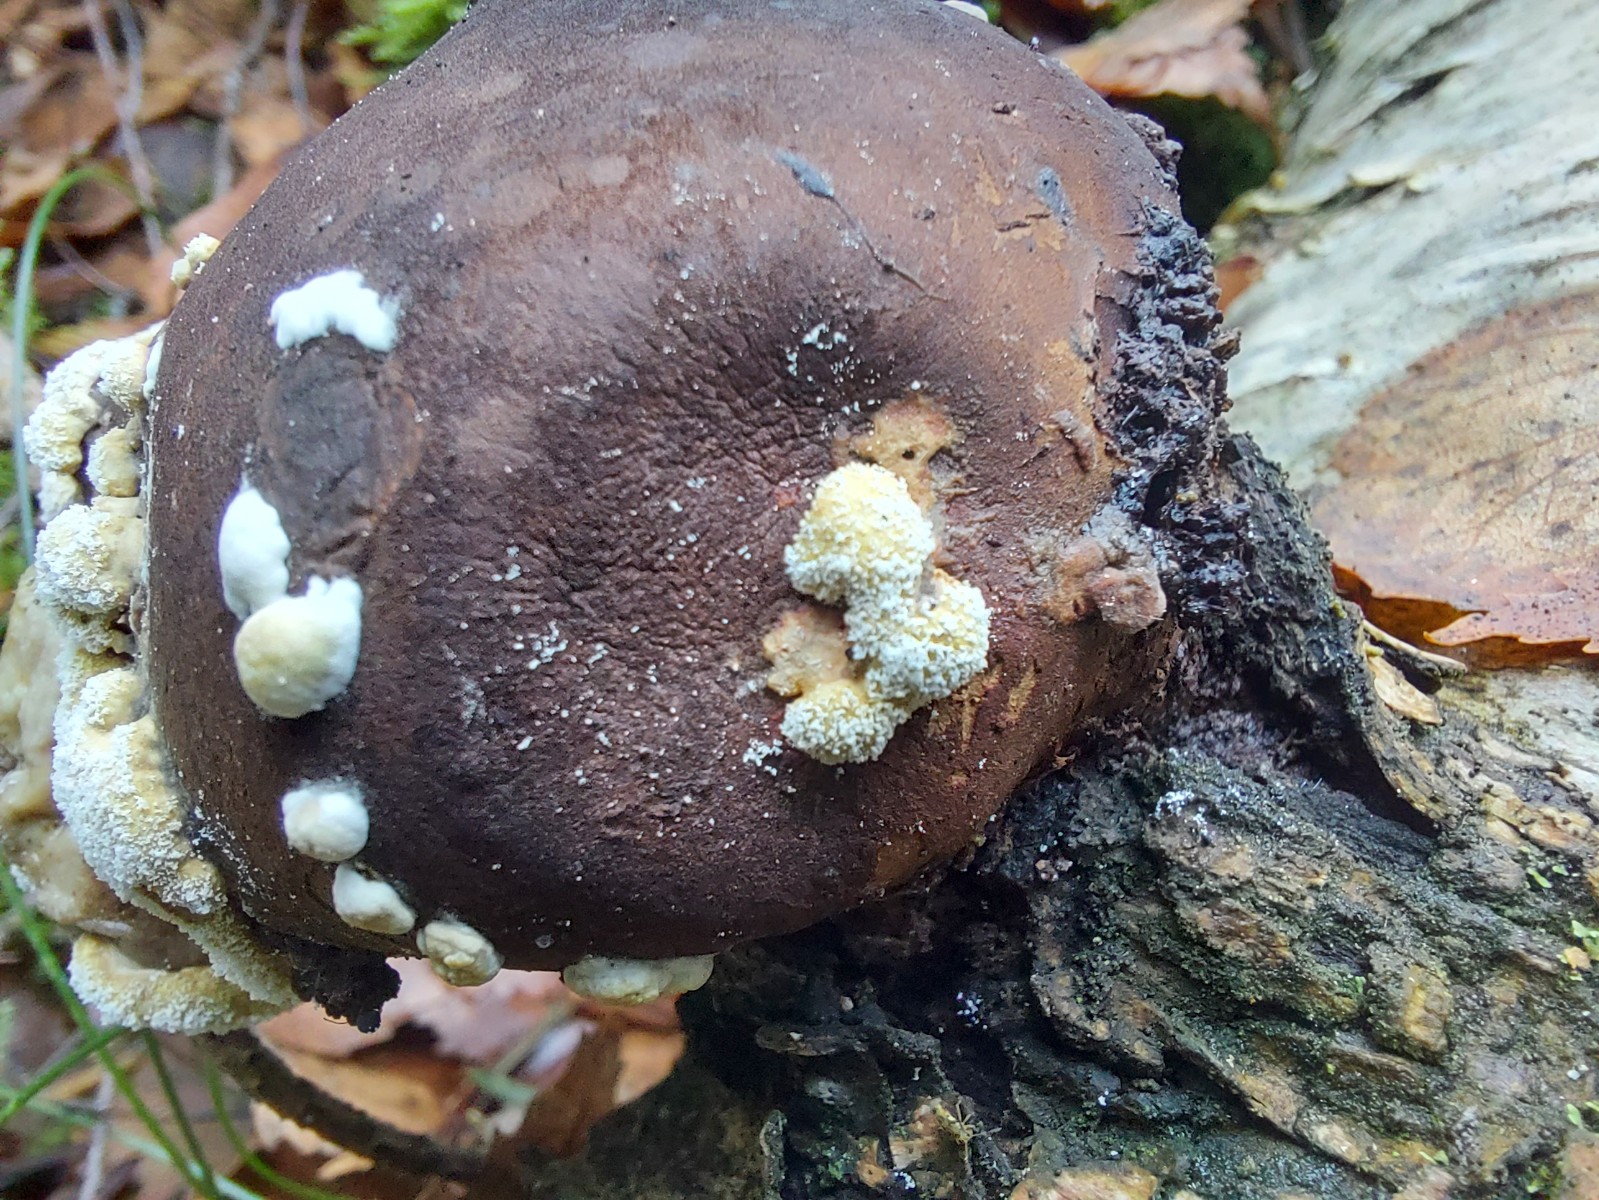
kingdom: Fungi
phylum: Ascomycota
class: Sordariomycetes
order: Hypocreales
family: Hypocreaceae
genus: Trichoderma
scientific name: Trichoderma pulvinatum
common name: snyltende kødkerne
